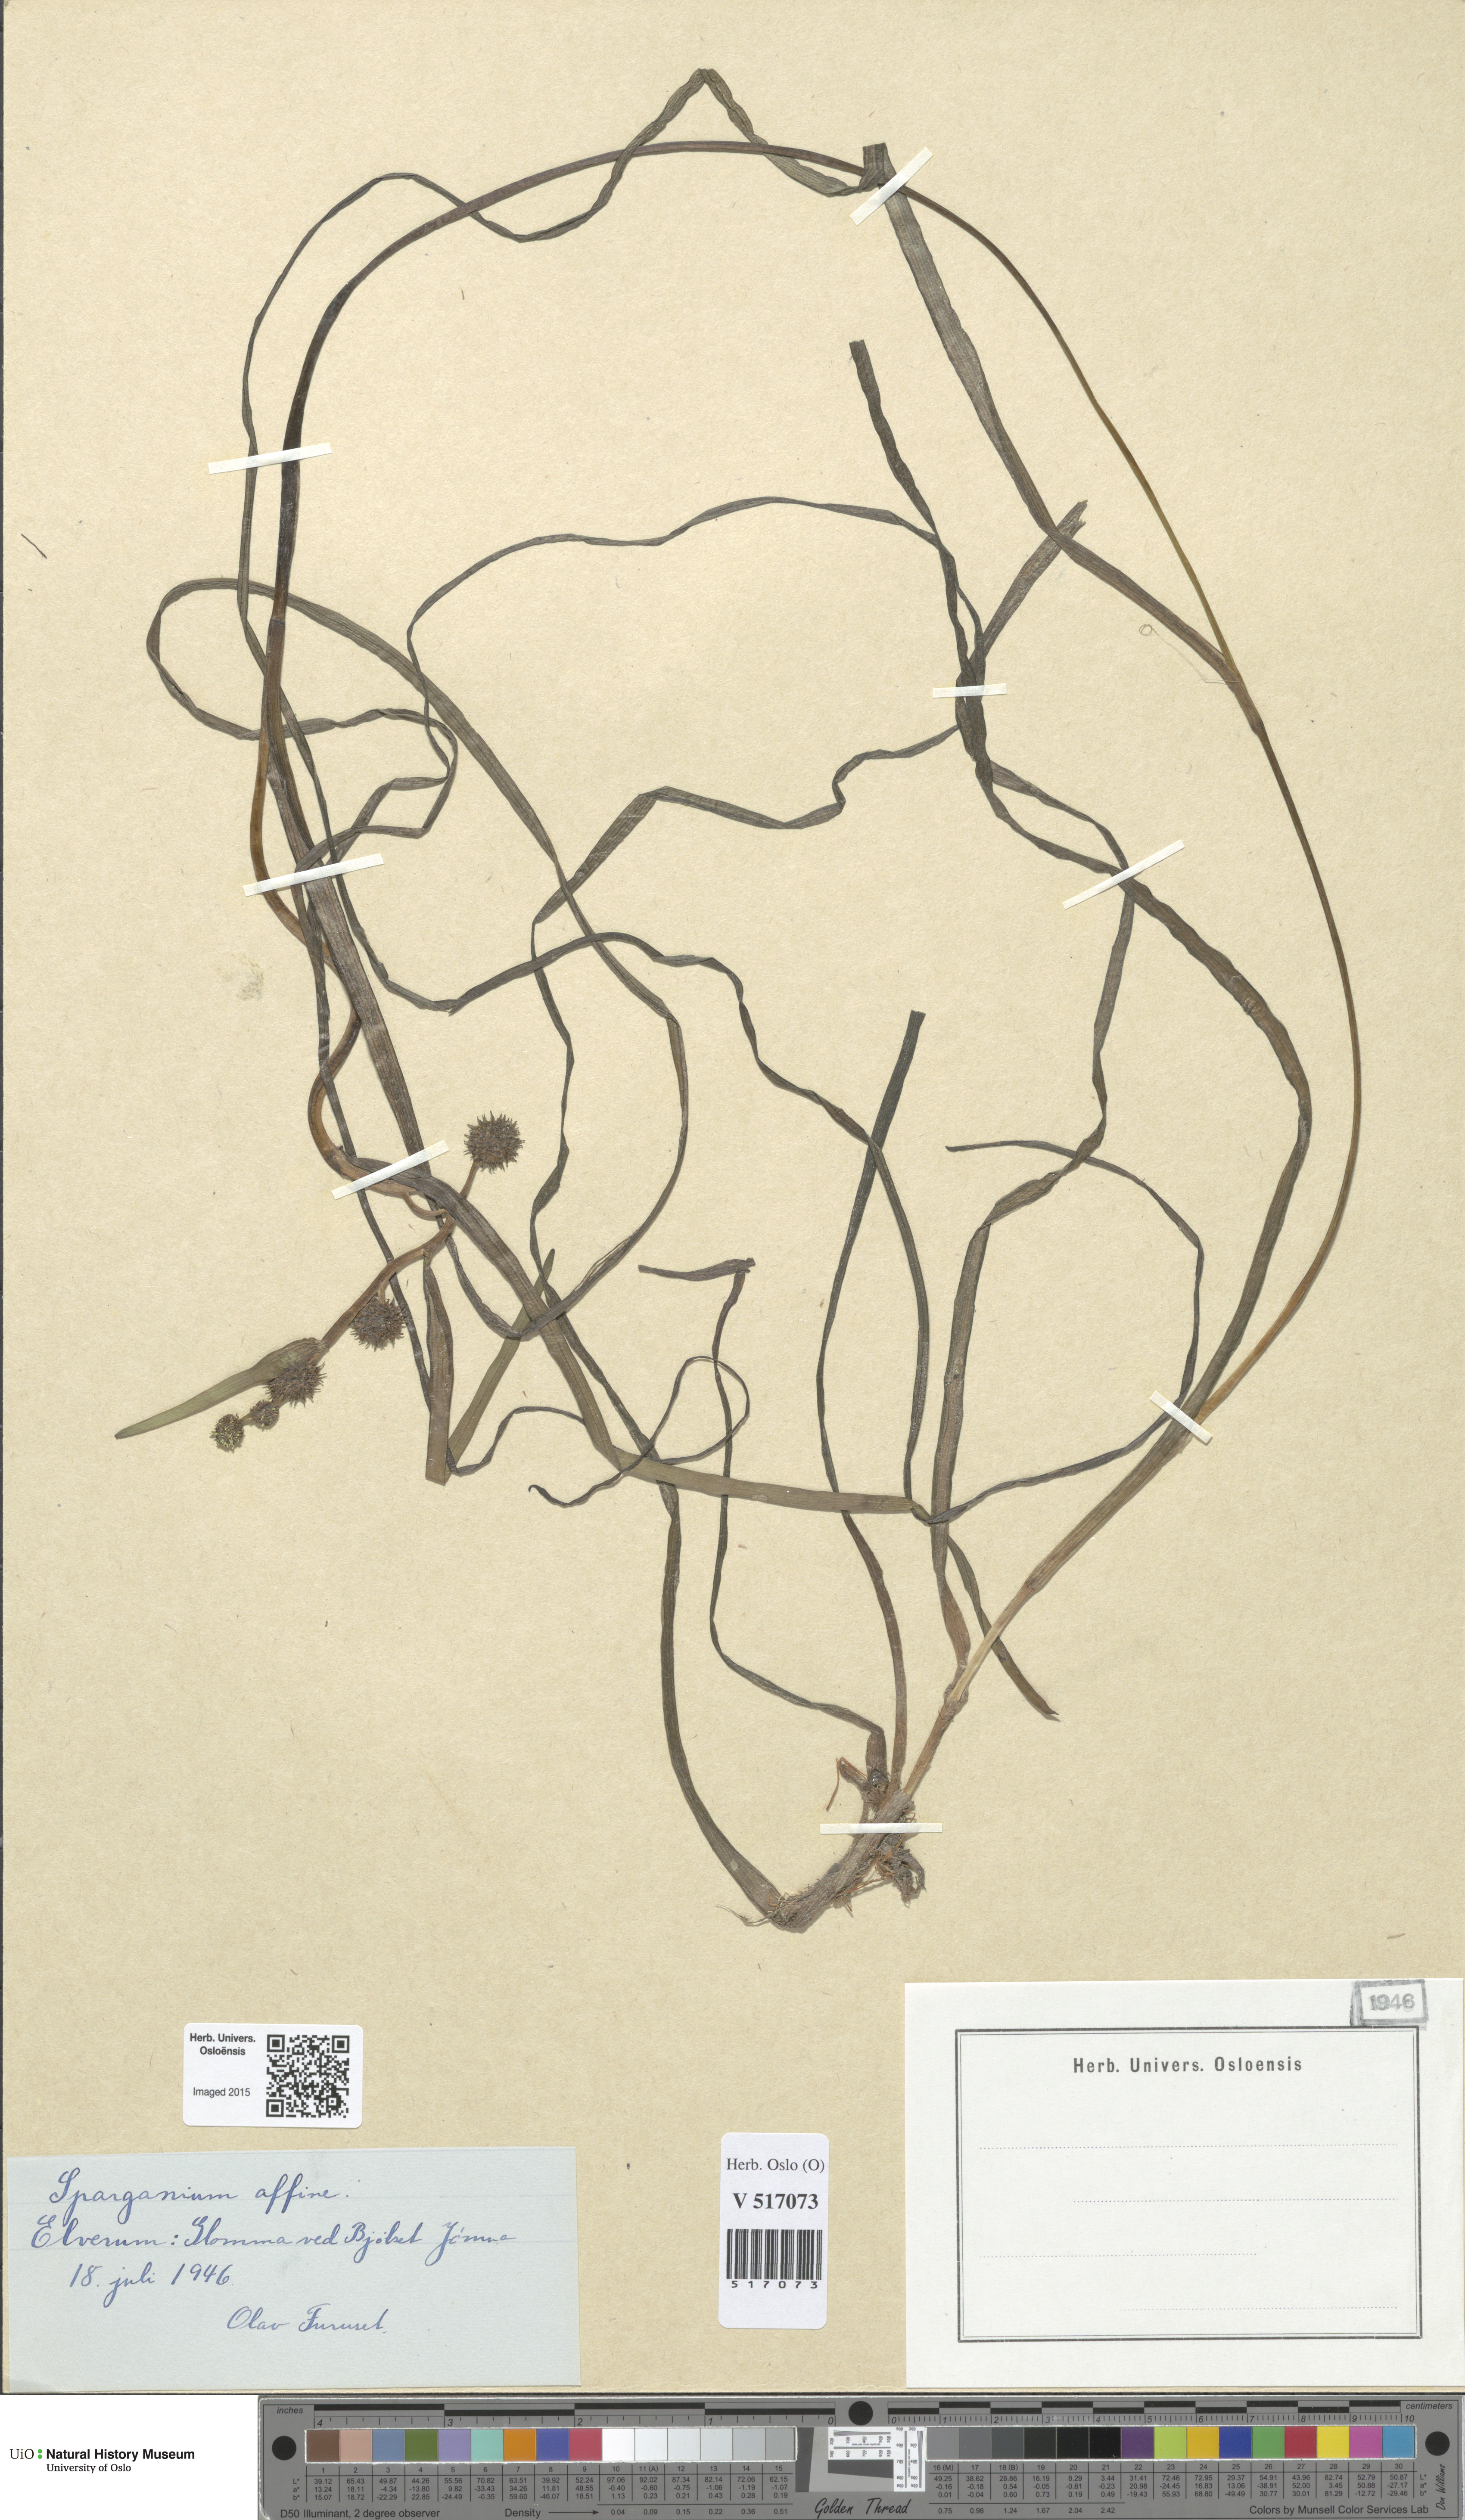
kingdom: Plantae
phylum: Tracheophyta
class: Liliopsida
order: Poales
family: Typhaceae
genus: Sparganium
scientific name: Sparganium angustifolium
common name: Floating bur-reed
